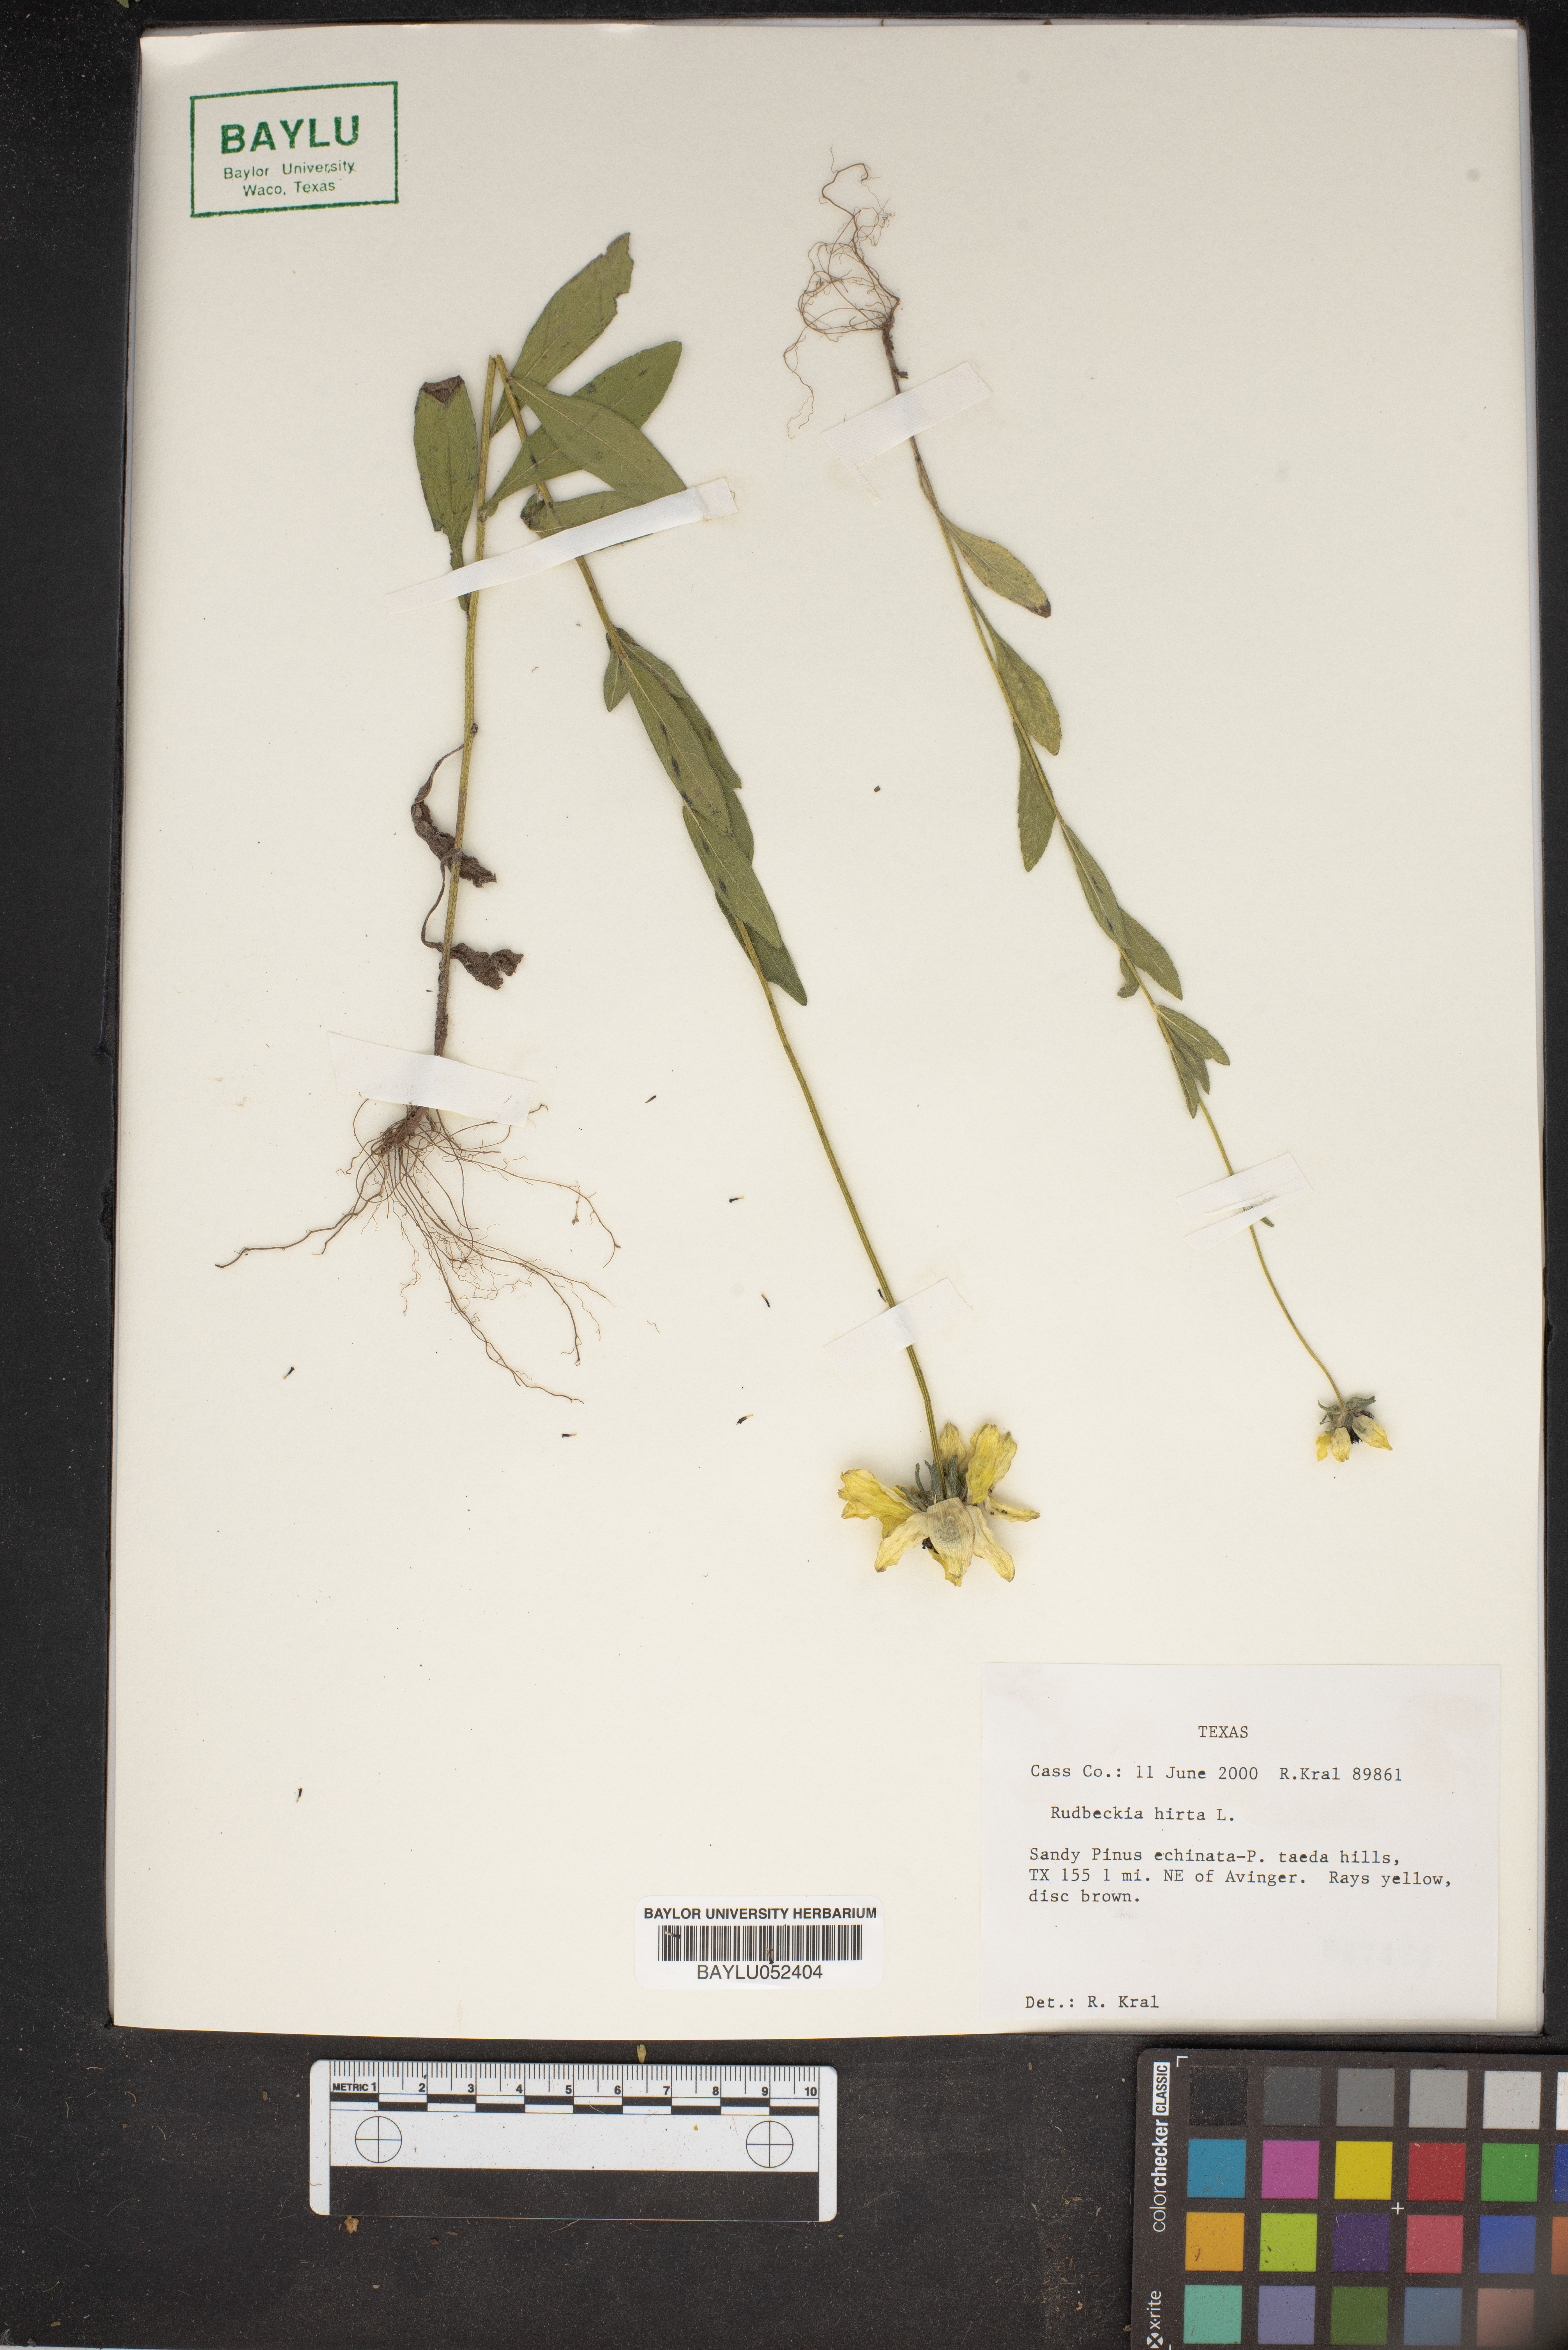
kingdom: Plantae
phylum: Tracheophyta
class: Magnoliopsida
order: Asterales
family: Asteraceae
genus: Rudbeckia
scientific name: Rudbeckia hirta
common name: Black-eyed-susan
